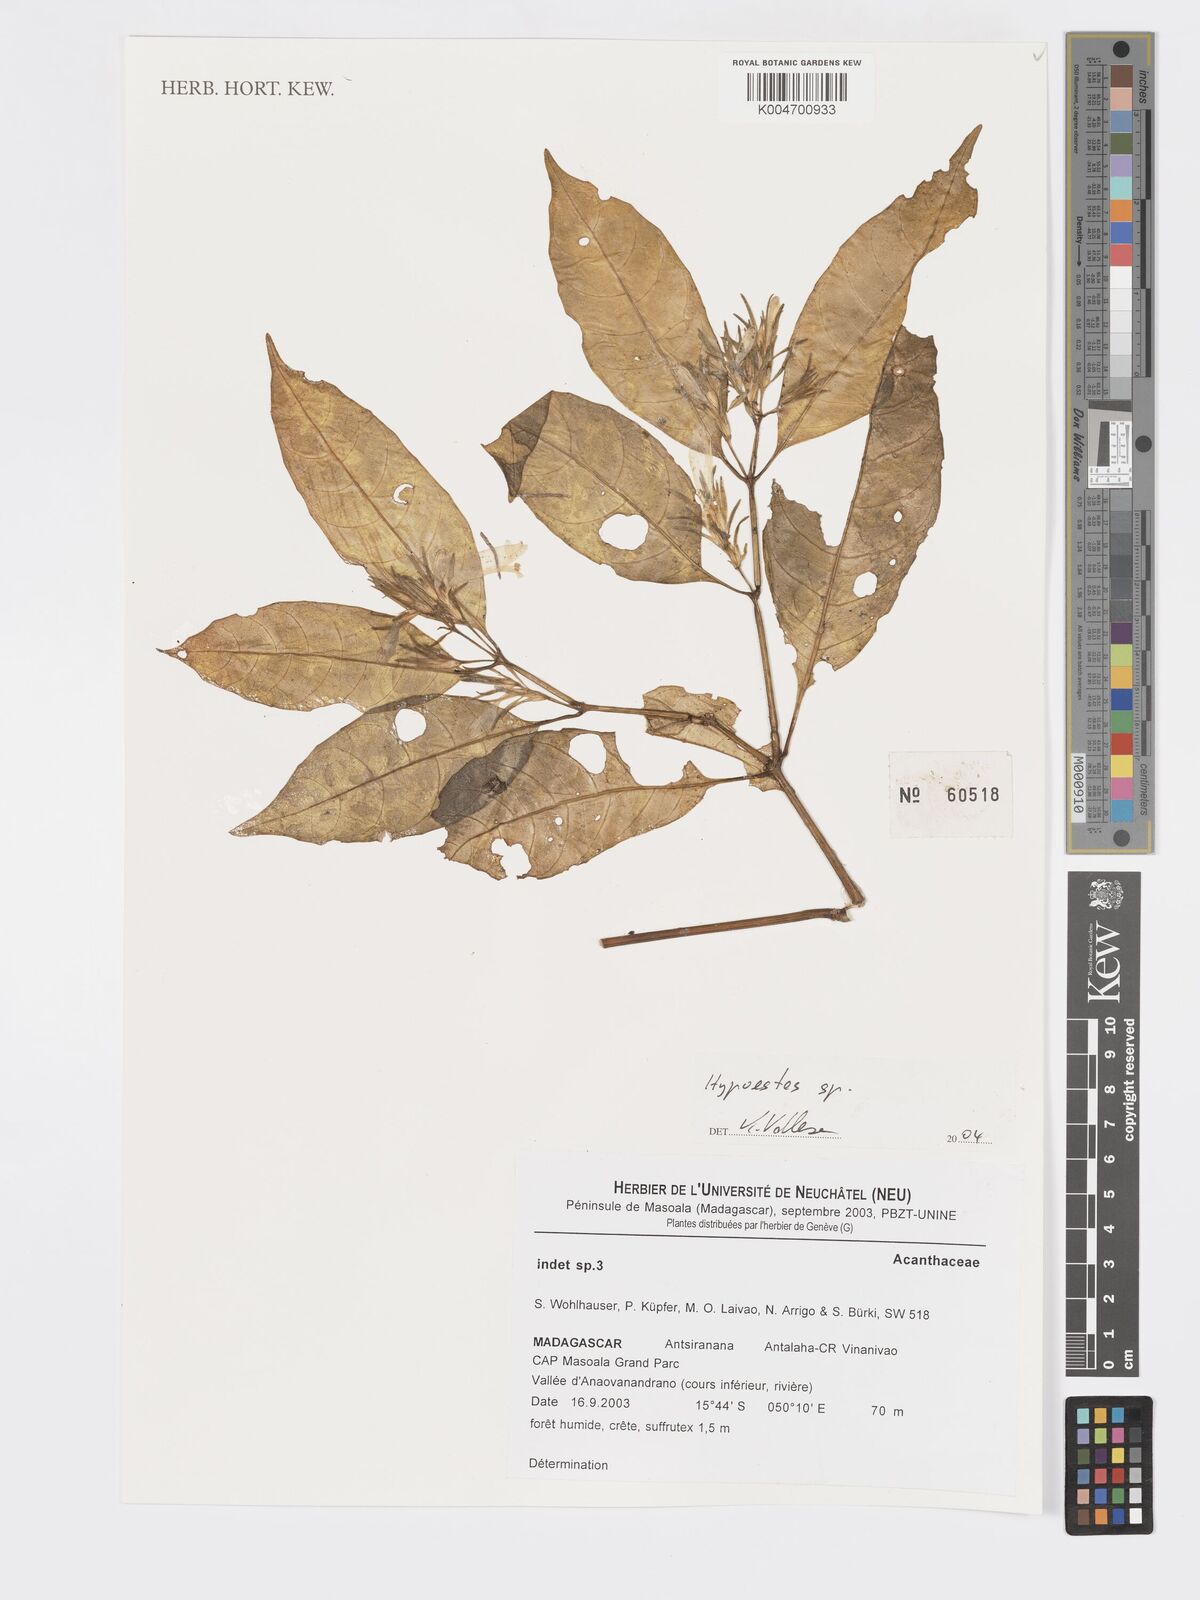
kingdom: Plantae
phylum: Tracheophyta
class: Magnoliopsida
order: Lamiales
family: Acanthaceae
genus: Hypoestes
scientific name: Hypoestes
